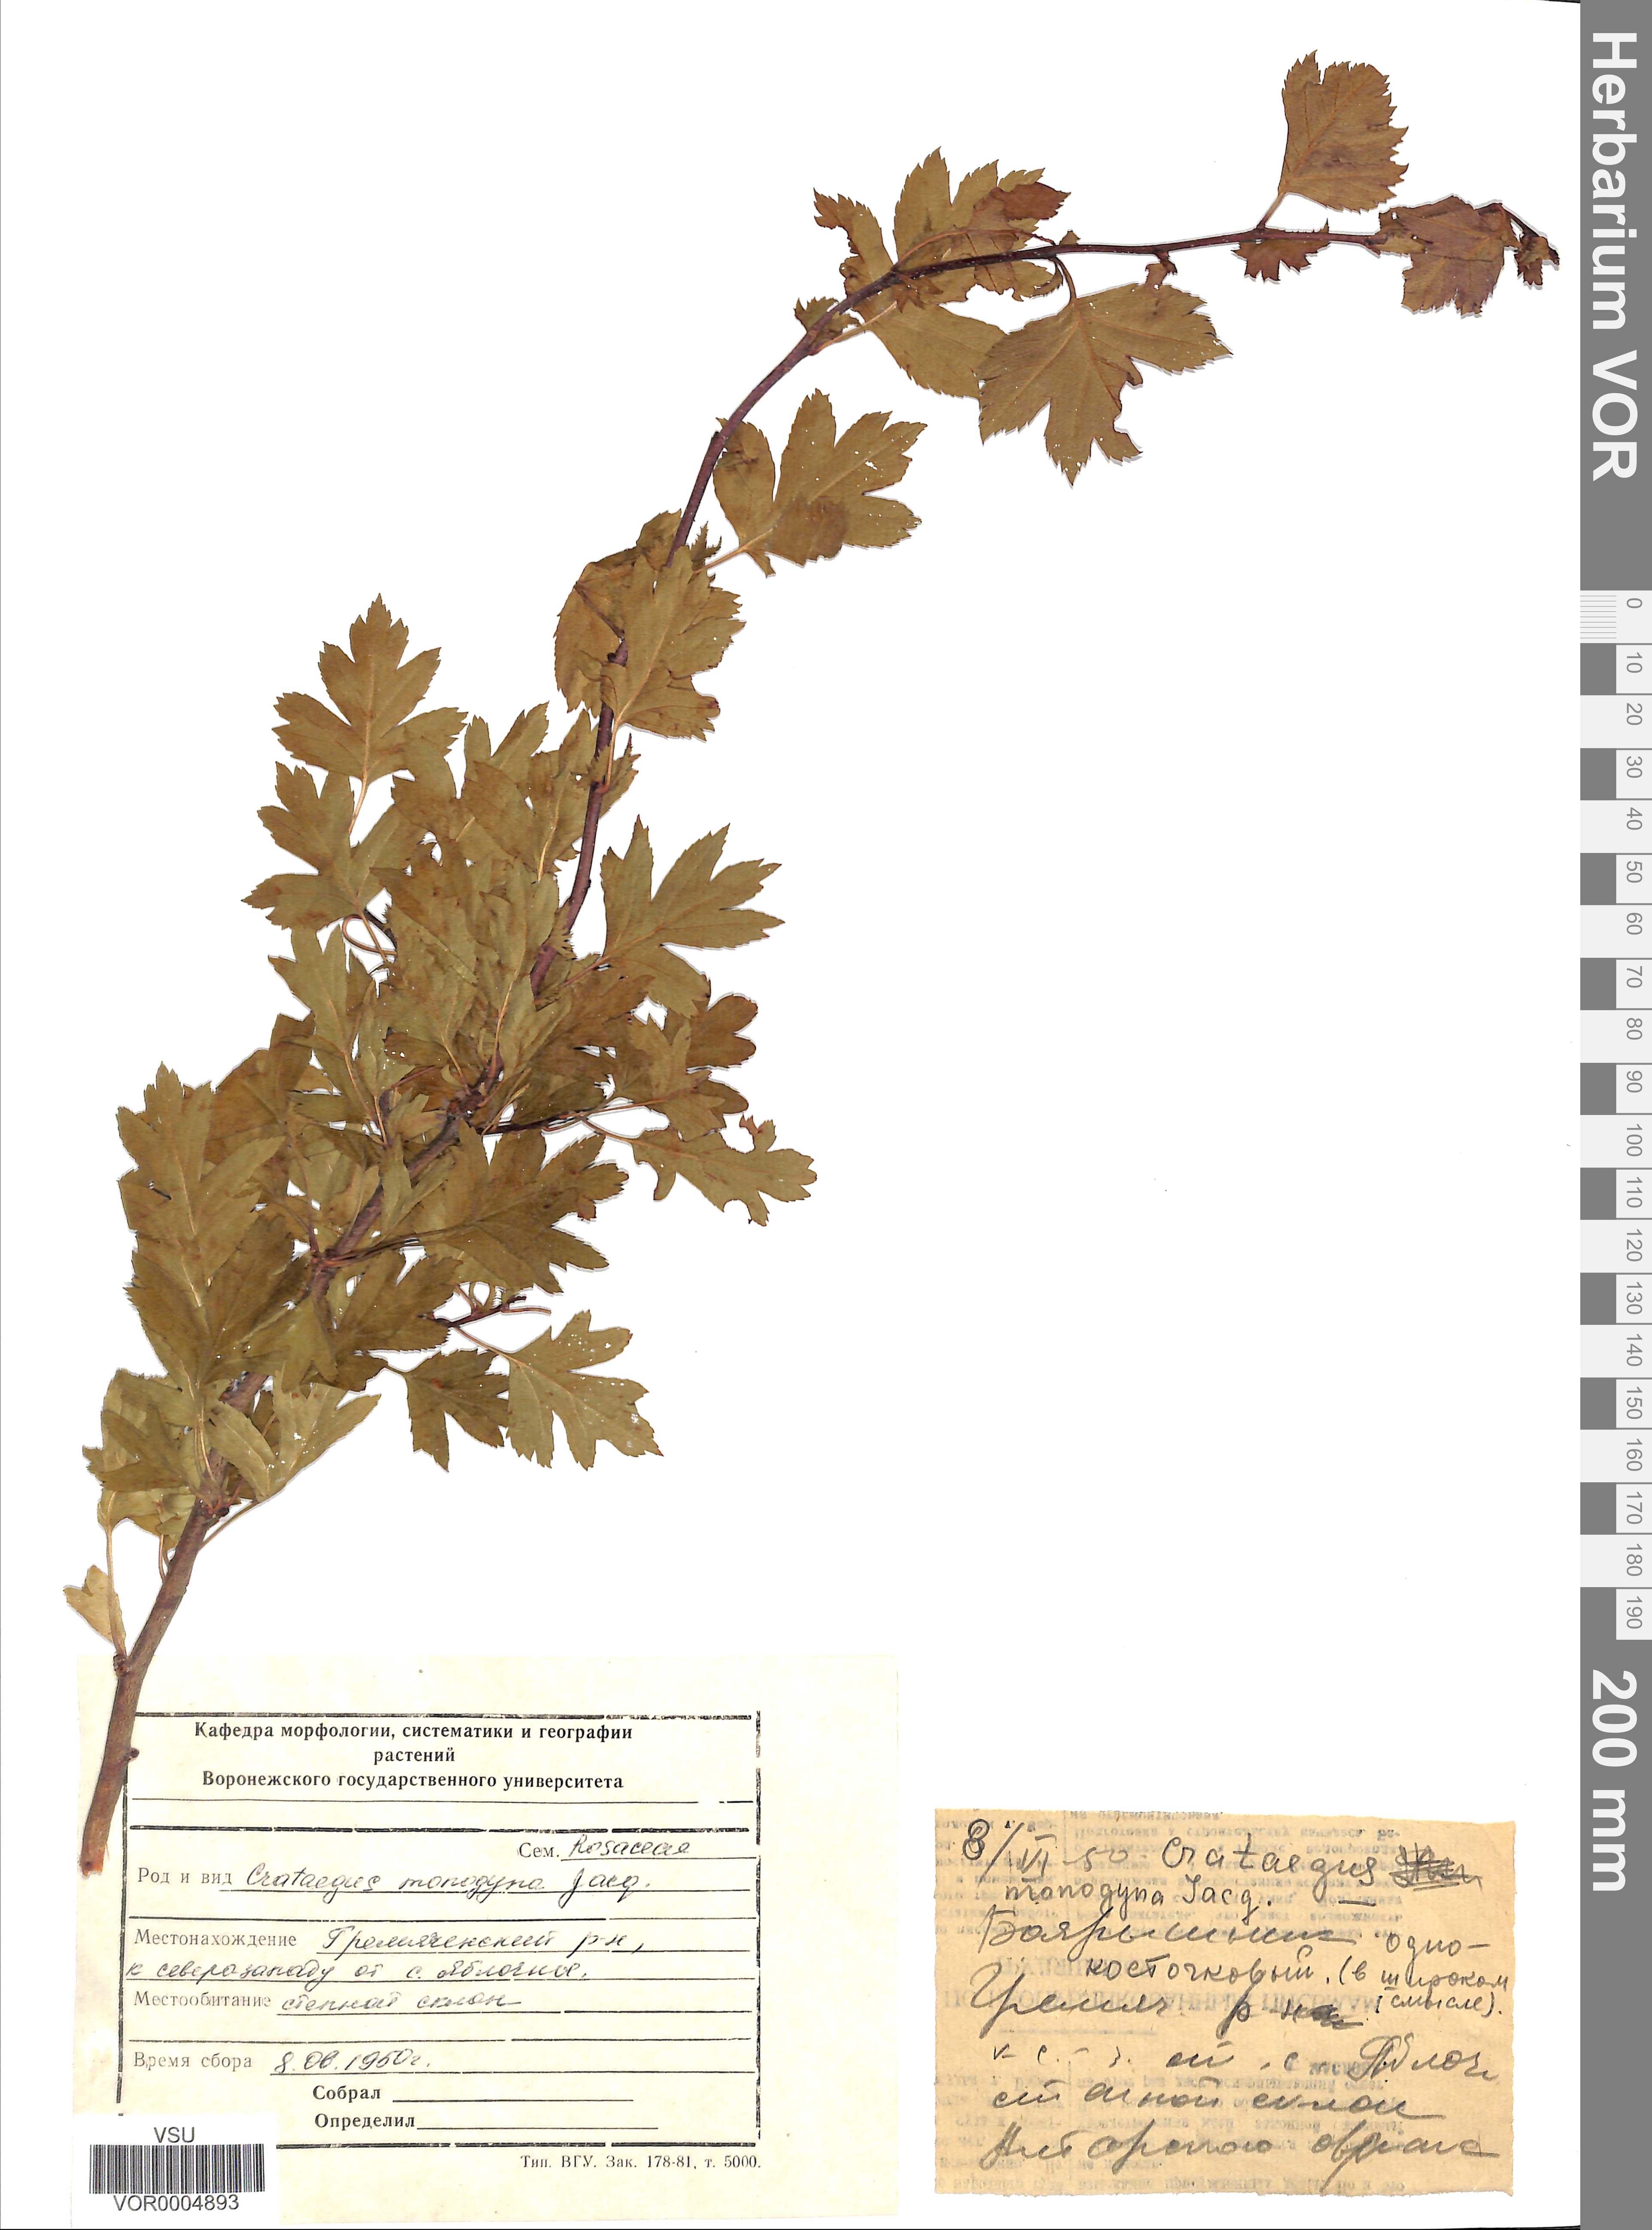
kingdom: Plantae
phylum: Tracheophyta
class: Magnoliopsida
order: Rosales
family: Rosaceae
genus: Crataegus
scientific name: Crataegus monogyna
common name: Hawthorn
